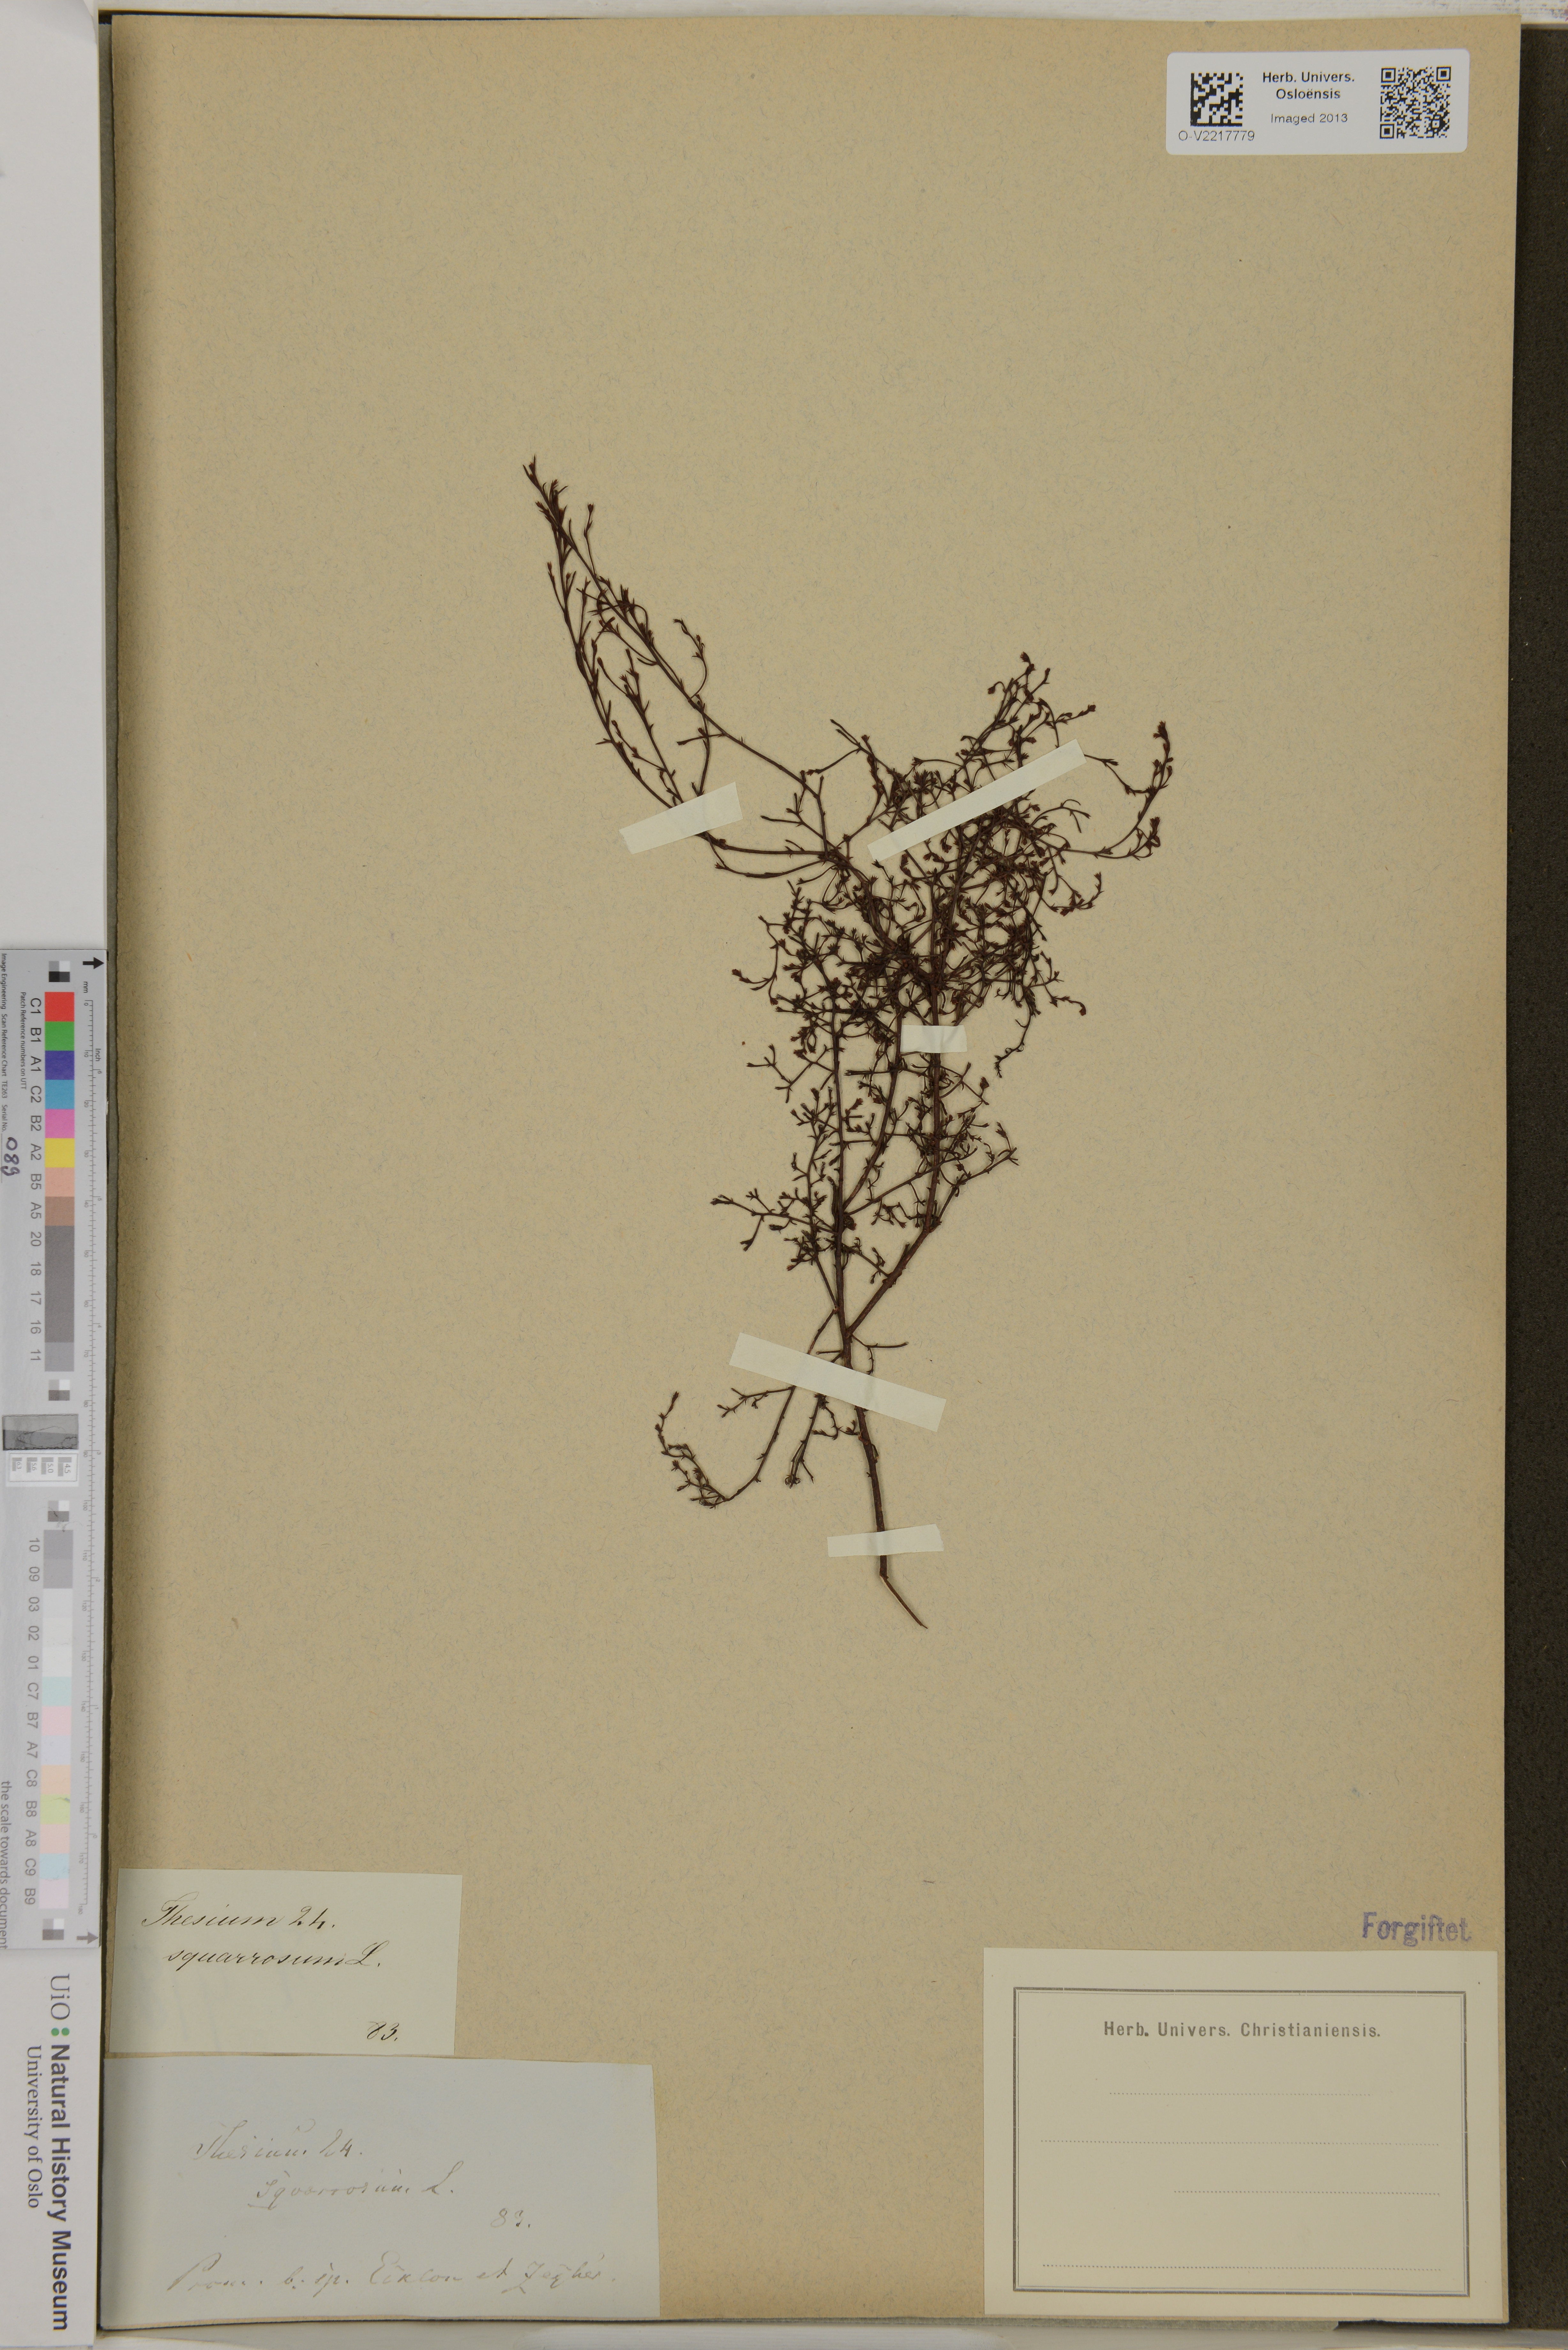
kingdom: Plantae
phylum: Tracheophyta
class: Magnoliopsida
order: Santalales
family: Thesiaceae
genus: Thesium
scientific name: Thesium squarrosum
